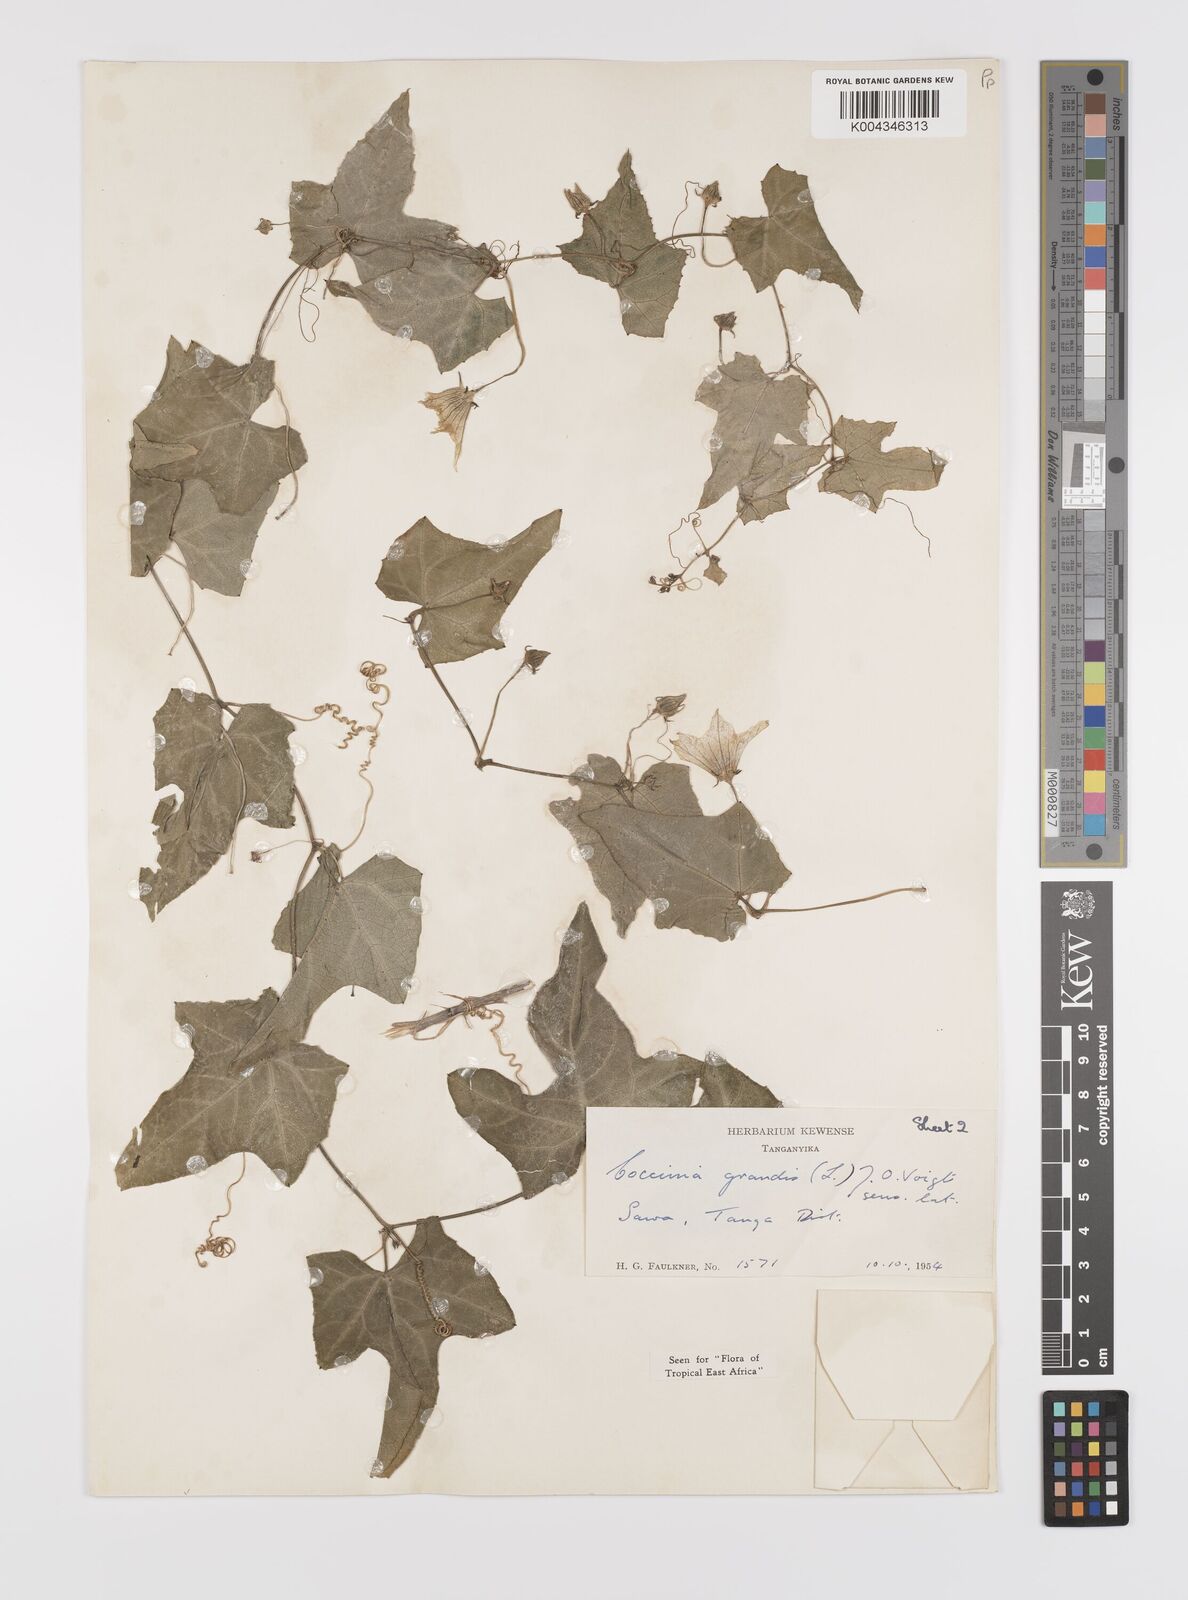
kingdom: Plantae
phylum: Tracheophyta
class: Magnoliopsida
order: Cucurbitales
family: Cucurbitaceae
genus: Coccinia
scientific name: Coccinia grandis
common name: Ivy gourd
